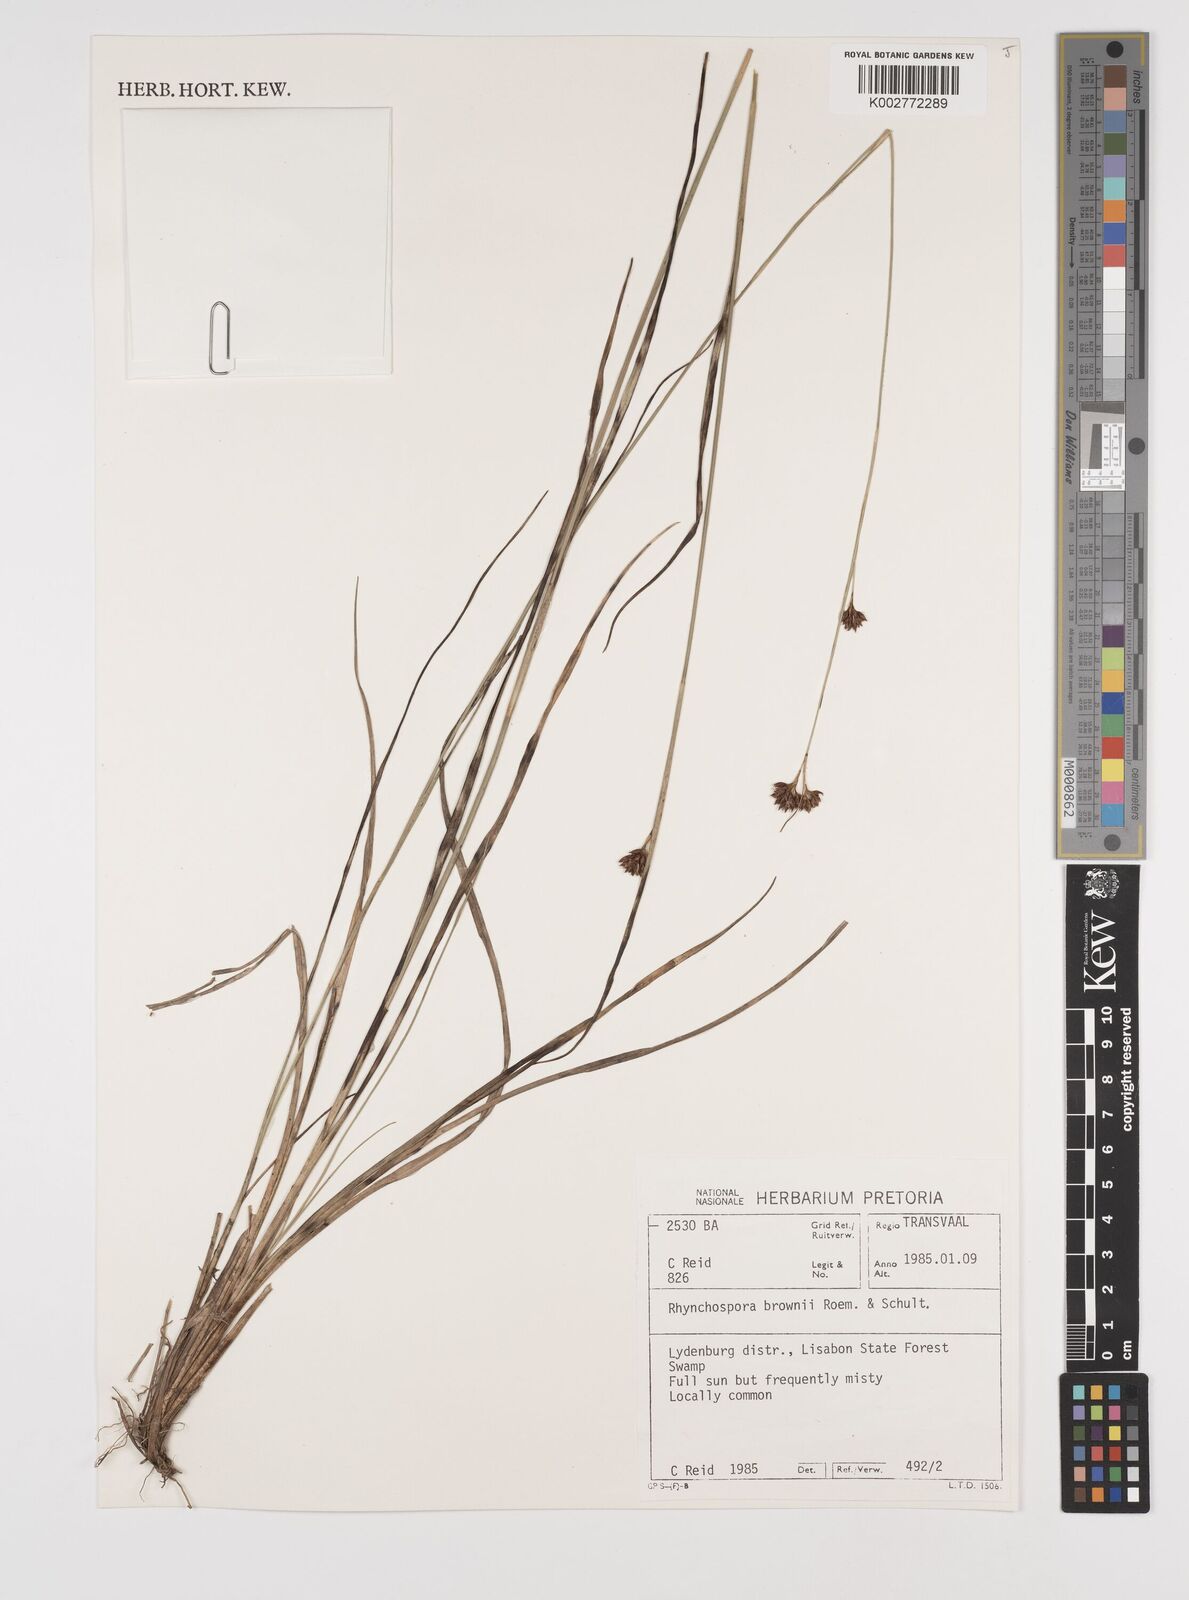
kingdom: Plantae
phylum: Tracheophyta
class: Liliopsida
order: Poales
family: Cyperaceae
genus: Rhynchospora
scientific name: Rhynchospora rugosa
